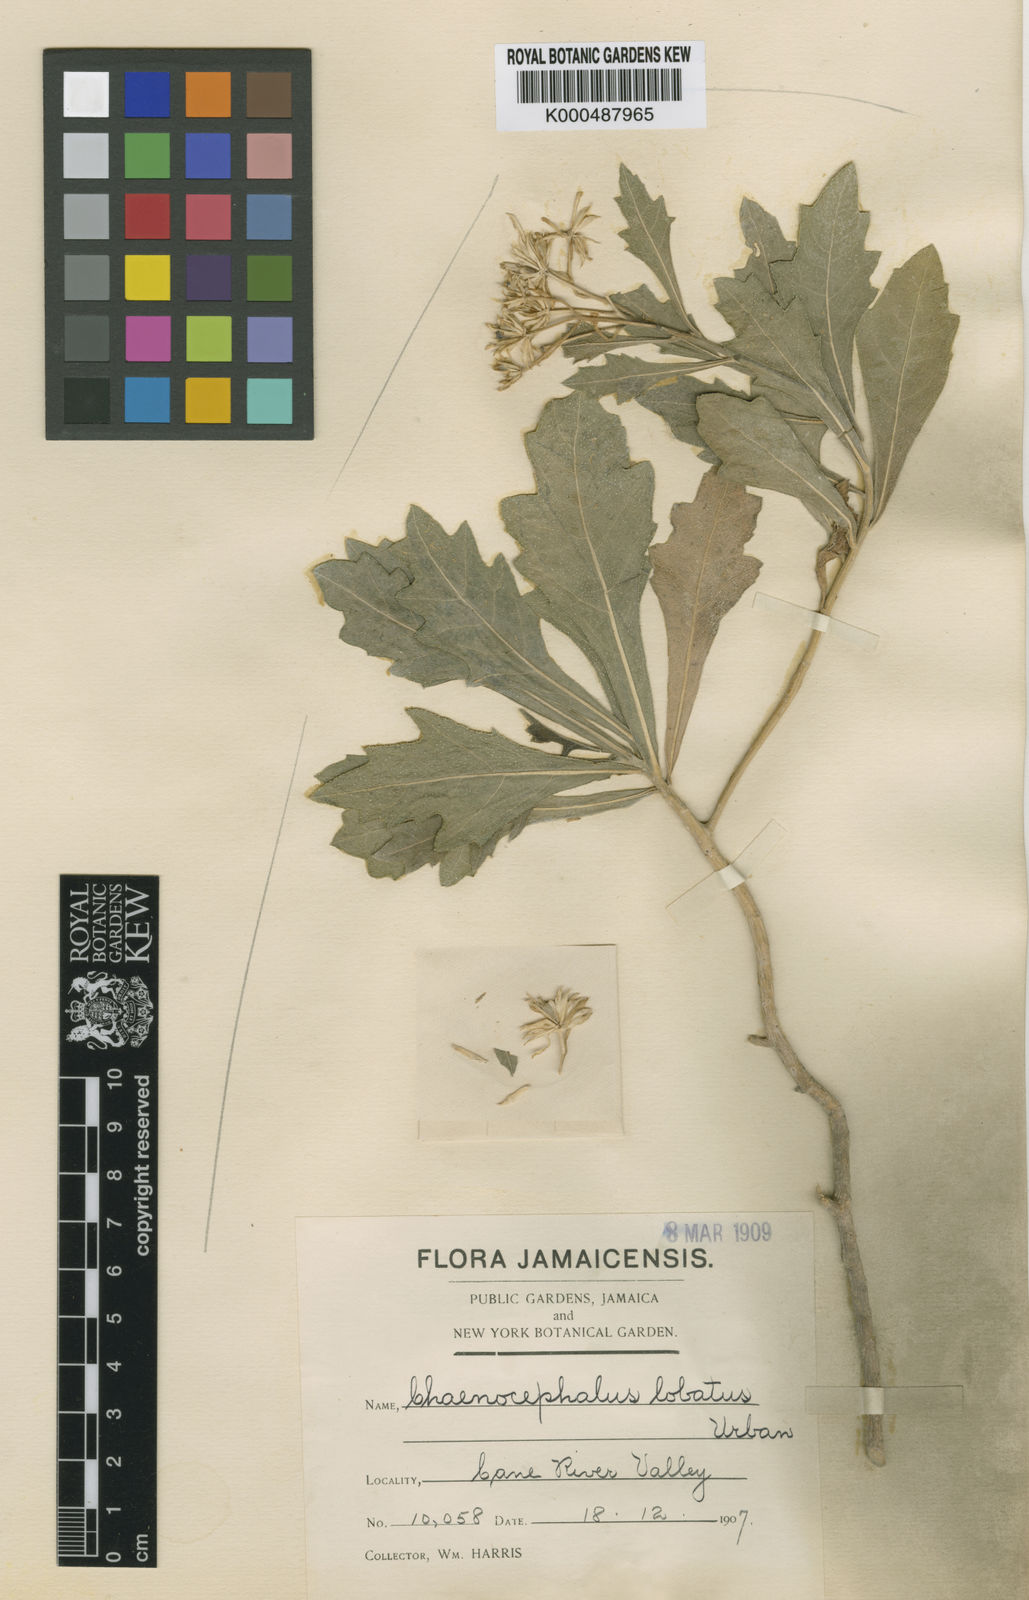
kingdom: Plantae
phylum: Tracheophyta
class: Magnoliopsida
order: Asterales
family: Asteraceae
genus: Verbesina
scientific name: Verbesina
